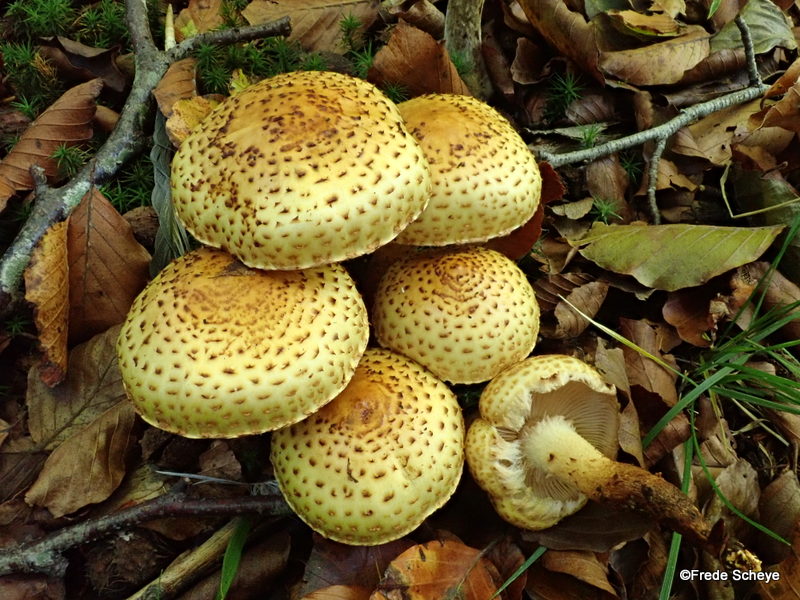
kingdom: Fungi
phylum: Basidiomycota
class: Agaricomycetes
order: Agaricales
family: Strophariaceae
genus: Pholiota
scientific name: Pholiota jahnii
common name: slimet skælhat
